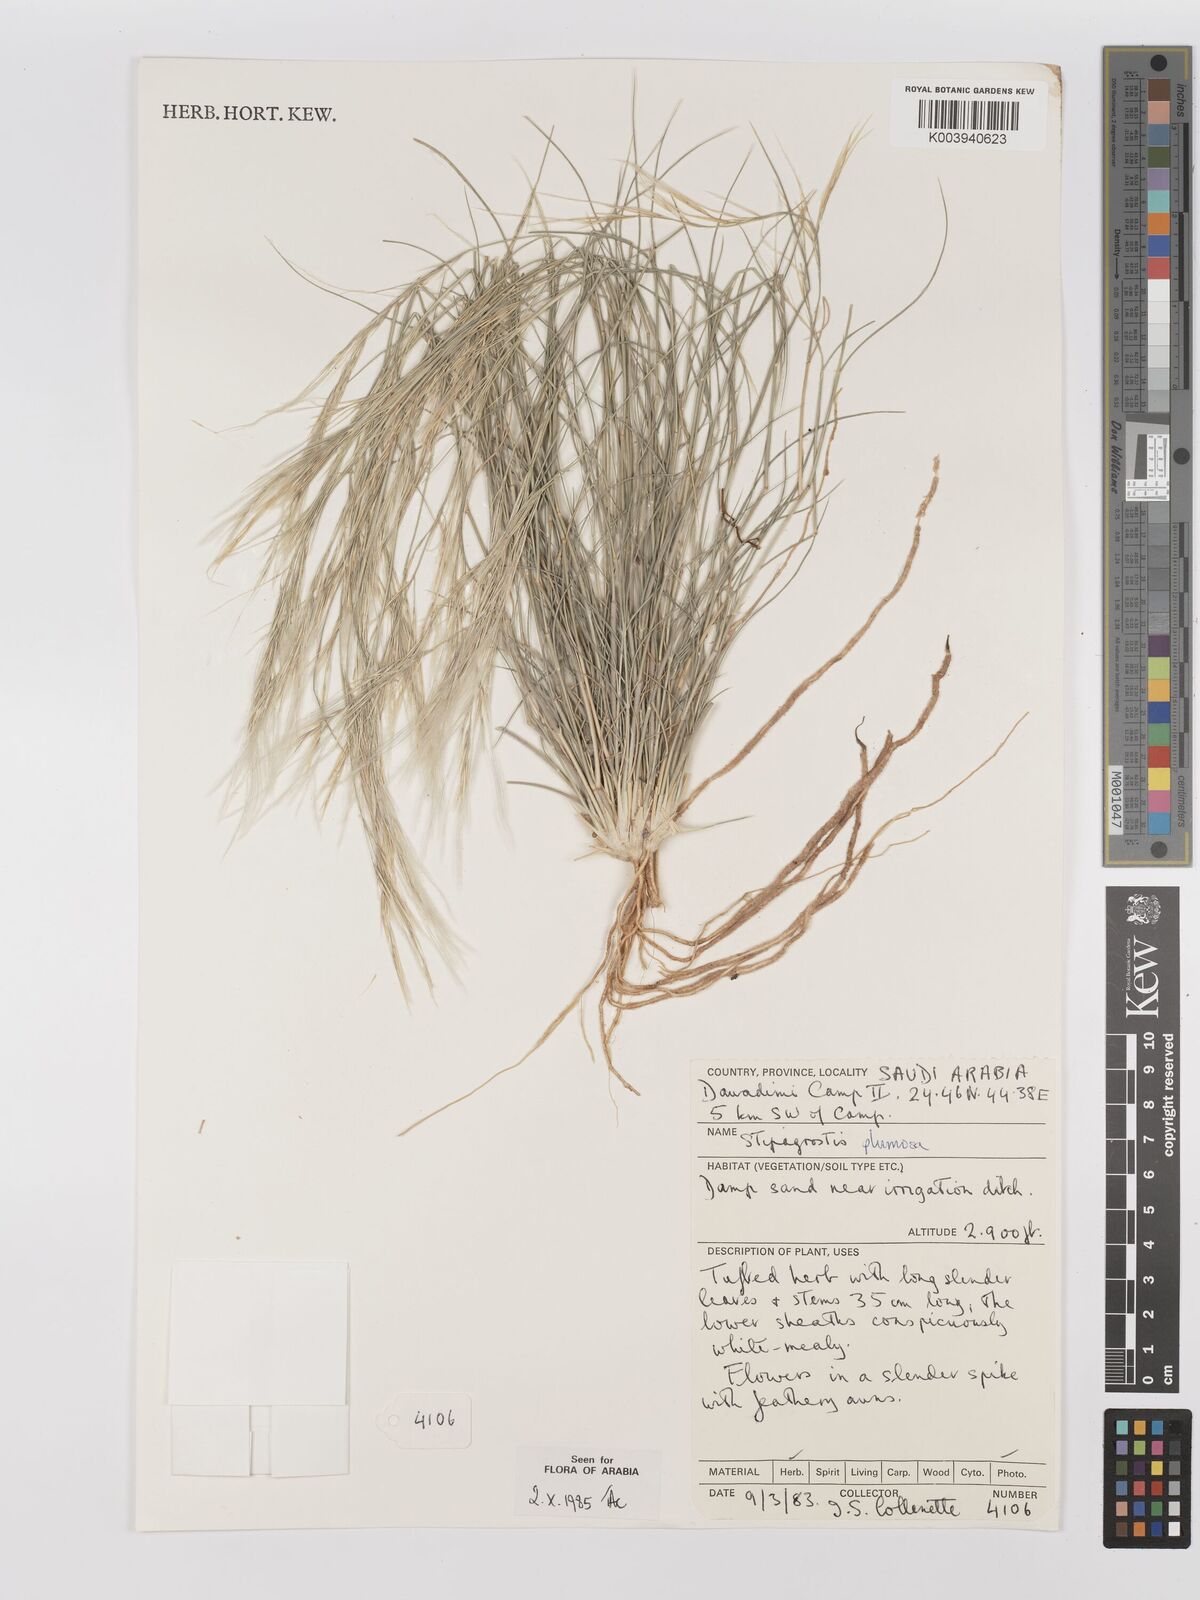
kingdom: Plantae
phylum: Tracheophyta
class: Liliopsida
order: Poales
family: Poaceae
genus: Stipagrostis
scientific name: Stipagrostis plumosa
